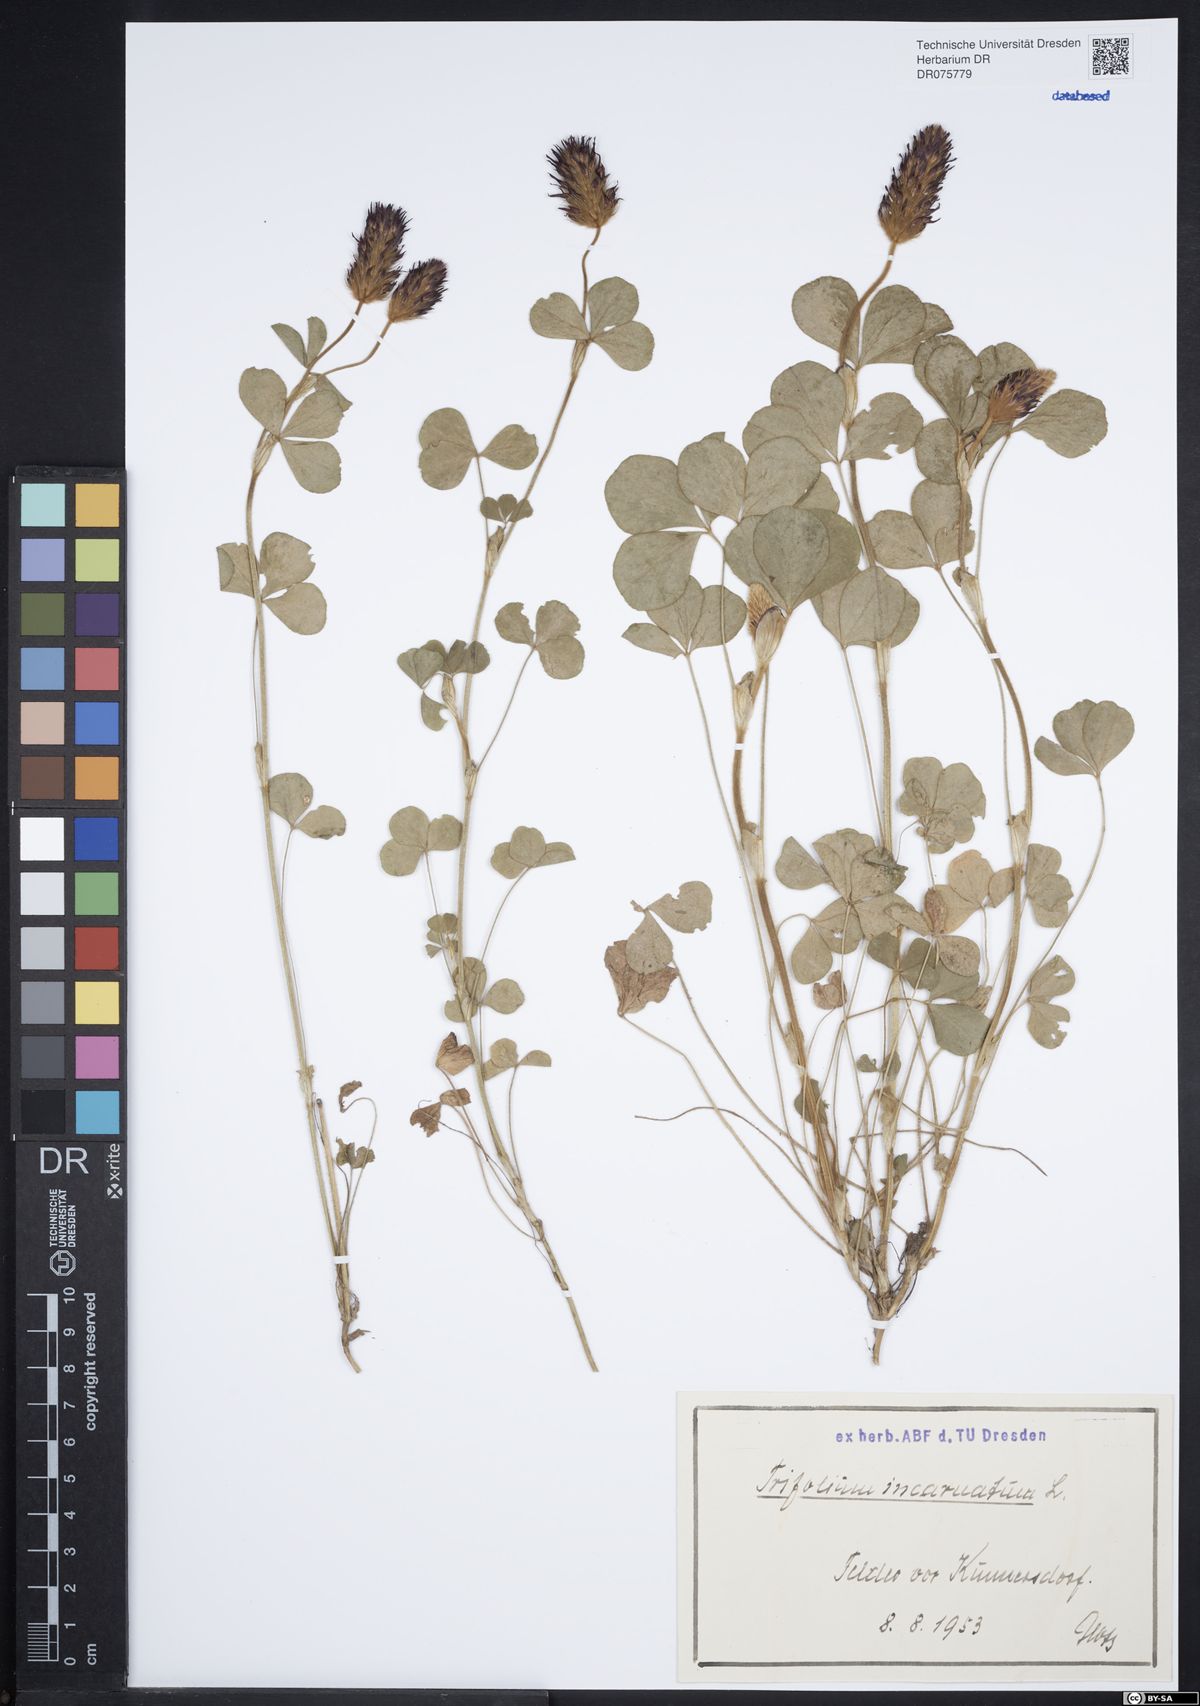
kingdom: Plantae
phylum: Tracheophyta
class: Magnoliopsida
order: Fabales
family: Fabaceae
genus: Trifolium
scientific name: Trifolium incarnatum
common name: Crimson clover
